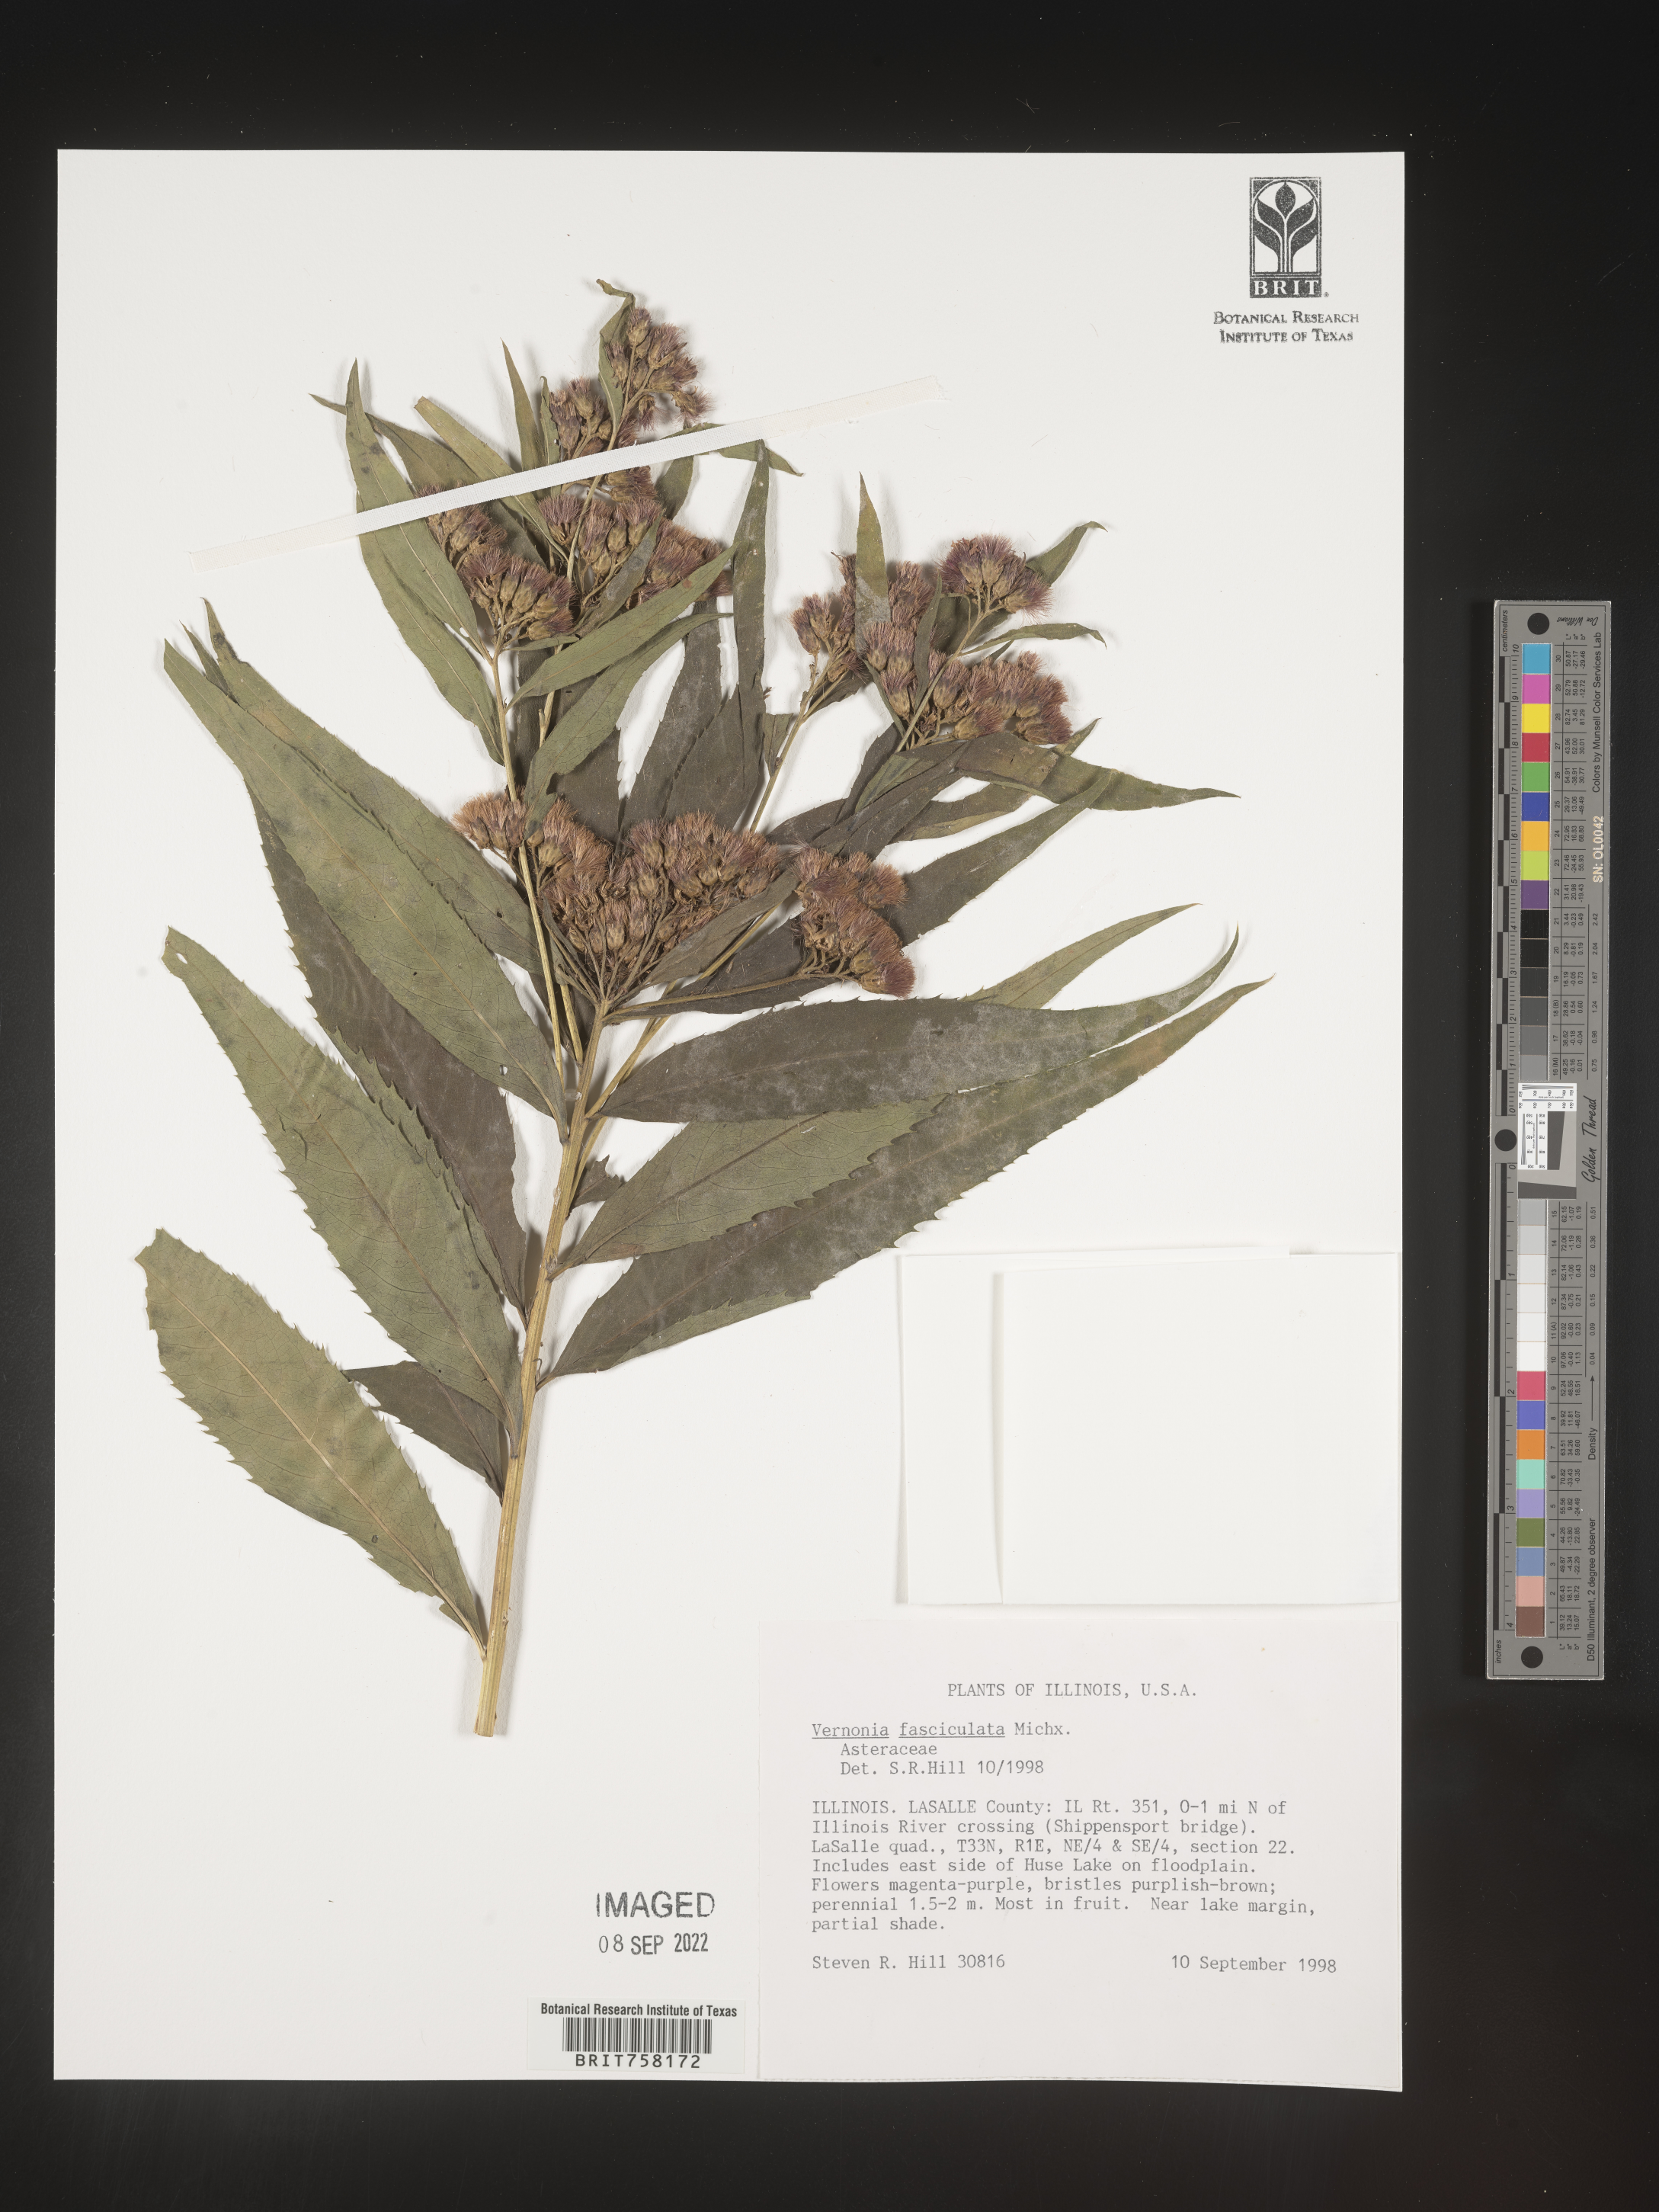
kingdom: Plantae
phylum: Tracheophyta
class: Magnoliopsida
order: Asterales
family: Asteraceae
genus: Vernonia
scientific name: Vernonia fasciculata
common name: Fascicled ironweed
